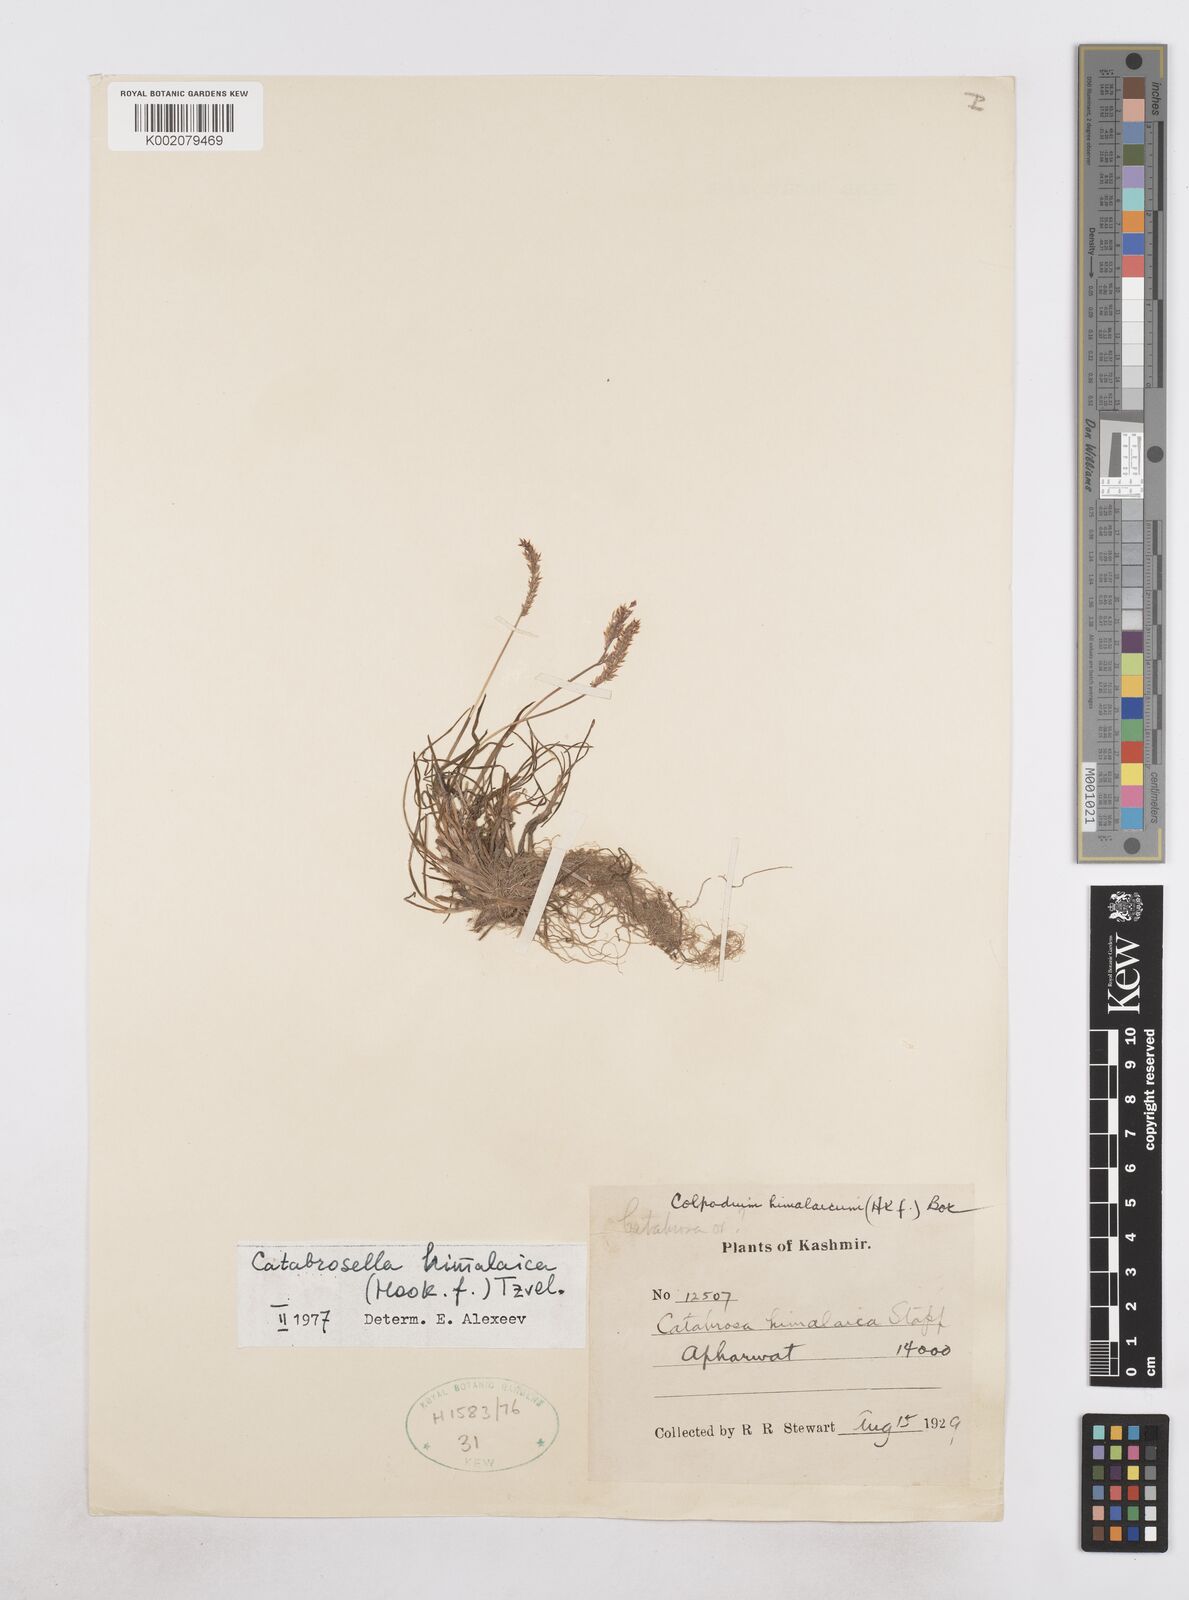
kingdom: Plantae
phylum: Tracheophyta
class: Liliopsida
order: Poales
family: Poaceae
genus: Catabrosella
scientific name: Catabrosella himalaica
